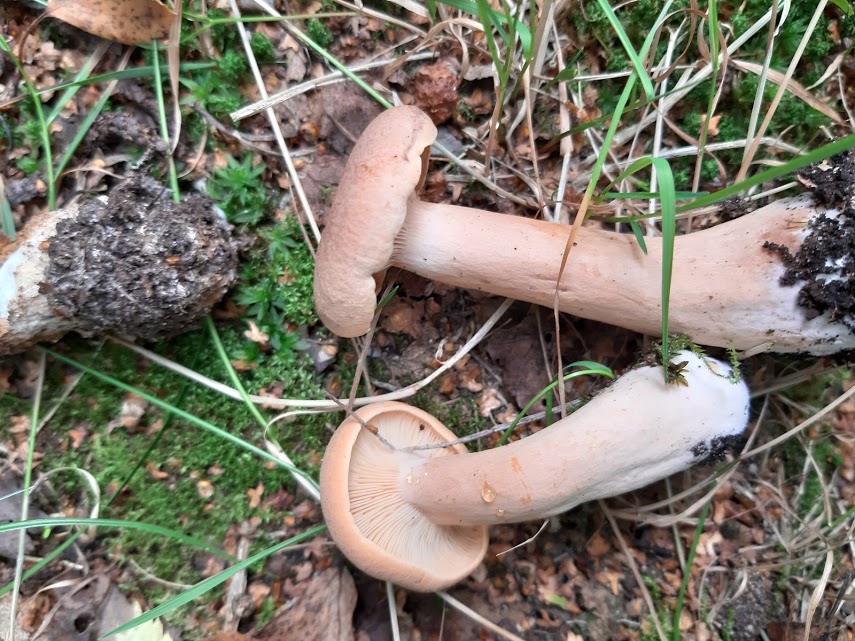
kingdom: Fungi
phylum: Basidiomycota
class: Agaricomycetes
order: Russulales
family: Russulaceae
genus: Lactarius
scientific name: Lactarius helvus
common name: mose-mælkehat
